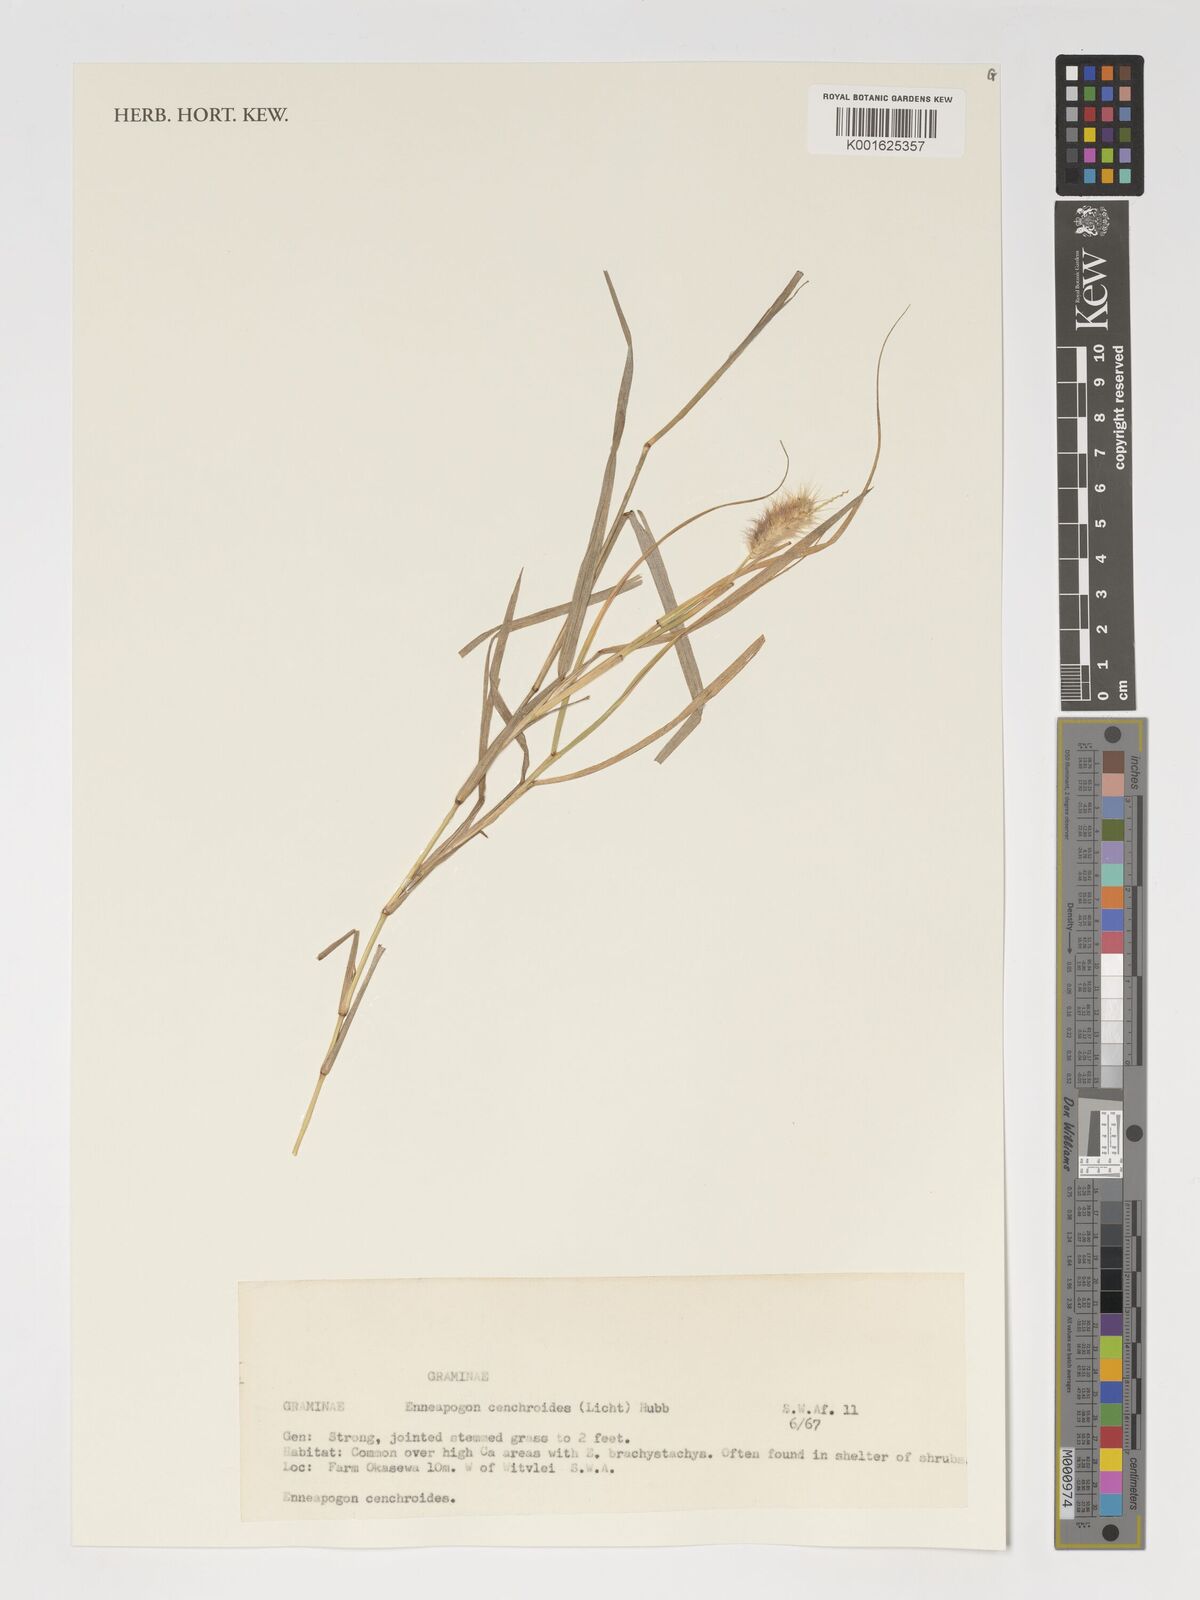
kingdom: Plantae
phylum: Tracheophyta
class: Liliopsida
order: Poales
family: Poaceae
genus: Enneapogon
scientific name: Enneapogon cenchroides
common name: Soft feather pappusgrass
